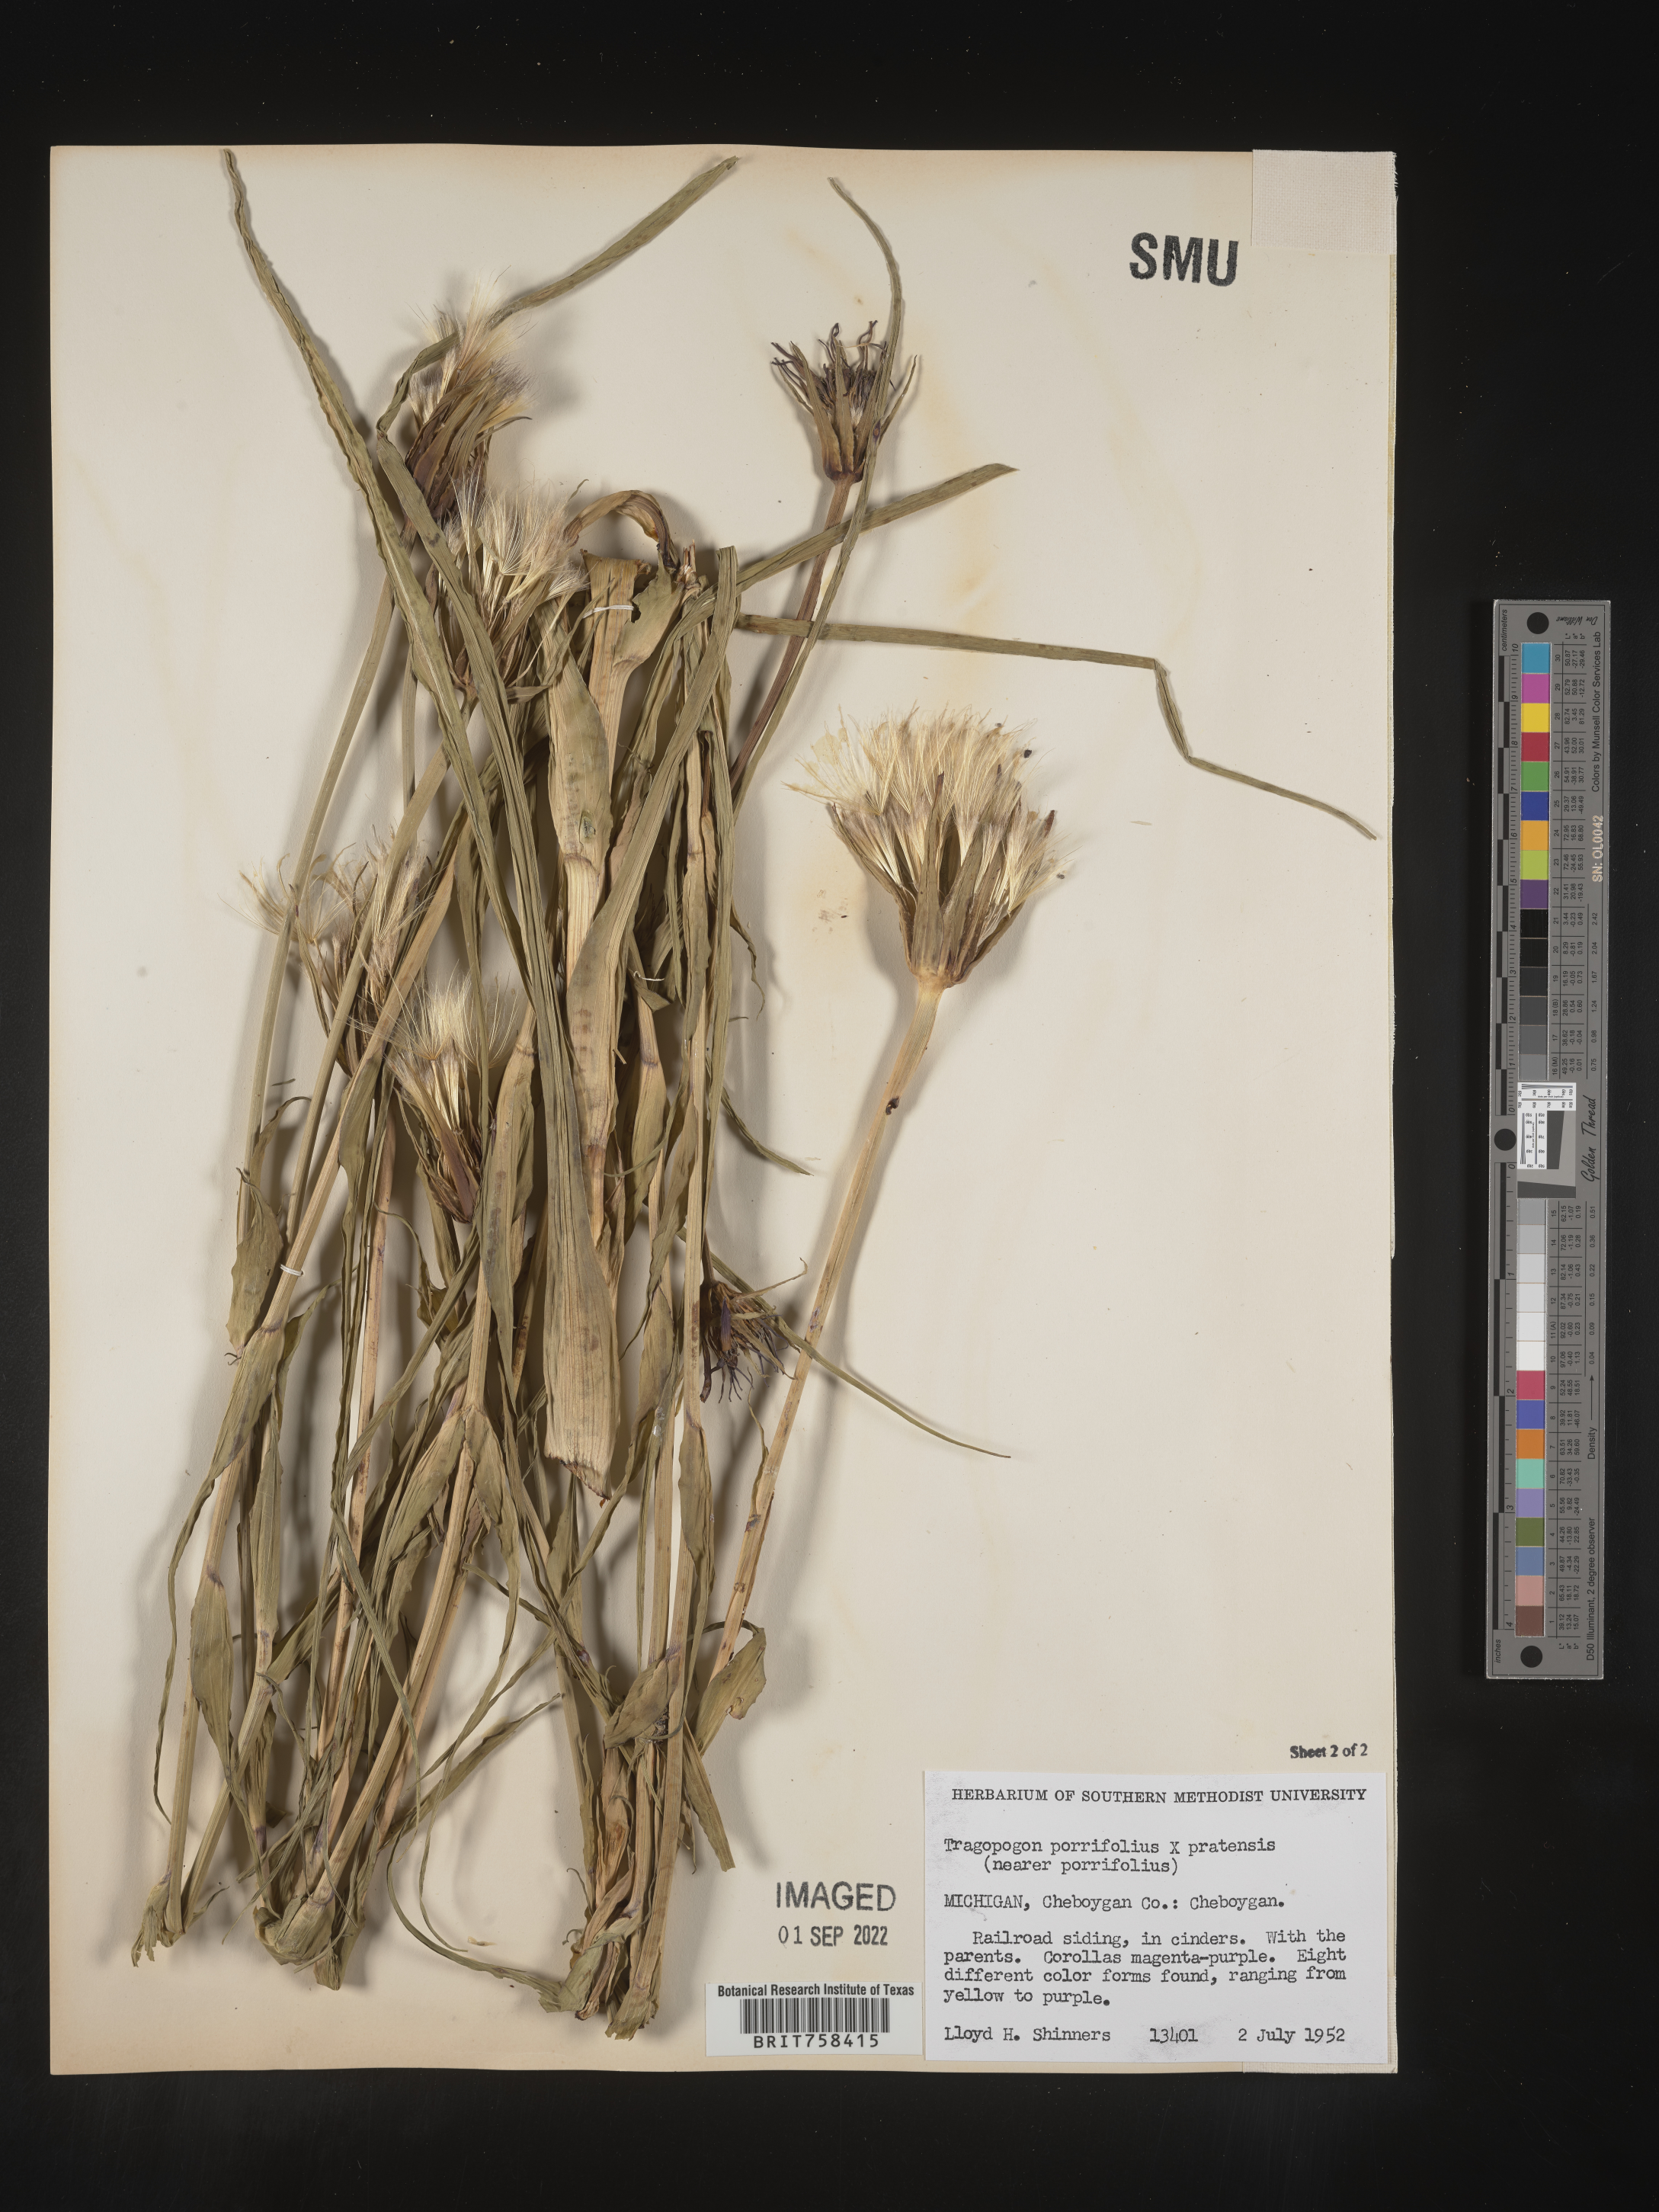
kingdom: Plantae
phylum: Tracheophyta
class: Magnoliopsida
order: Asterales
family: Asteraceae
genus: Tragopogon
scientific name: Tragopogon porrifolius
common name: Salsify
